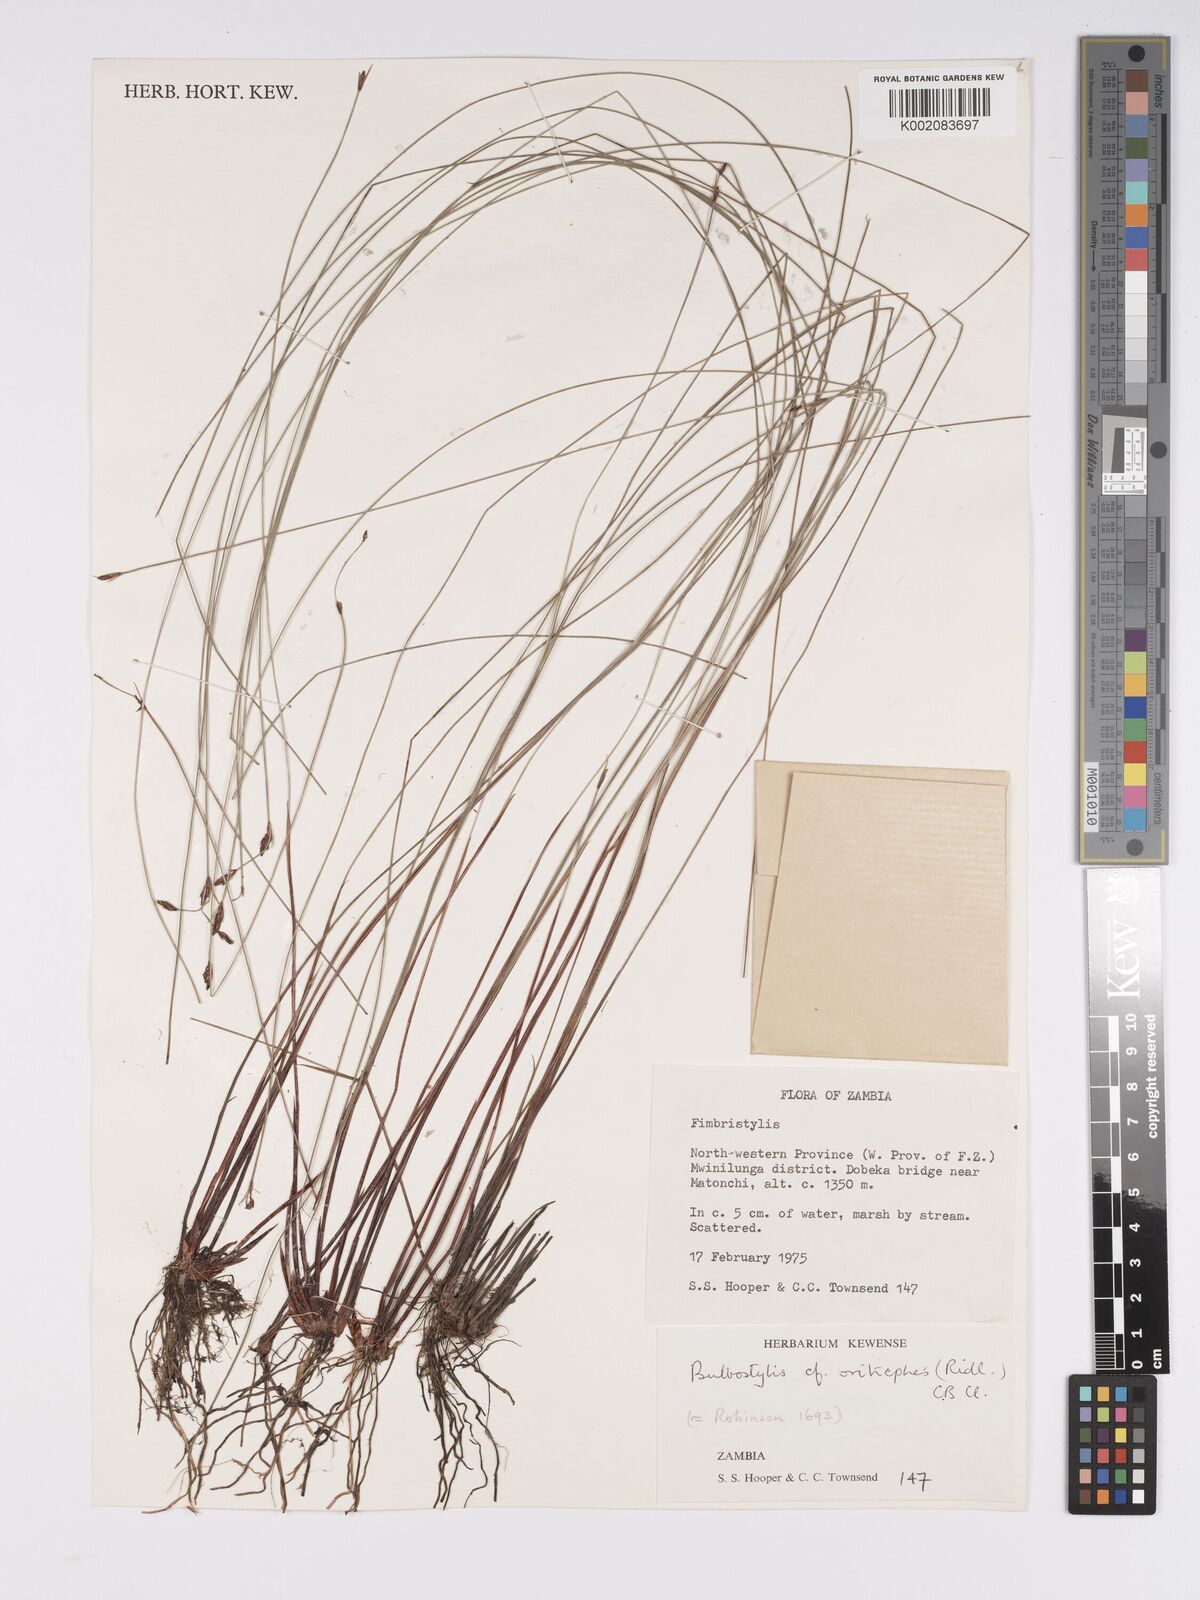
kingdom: Plantae
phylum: Tracheophyta
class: Liliopsida
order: Poales
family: Cyperaceae
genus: Bulbostylis
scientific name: Bulbostylis oritrephes
